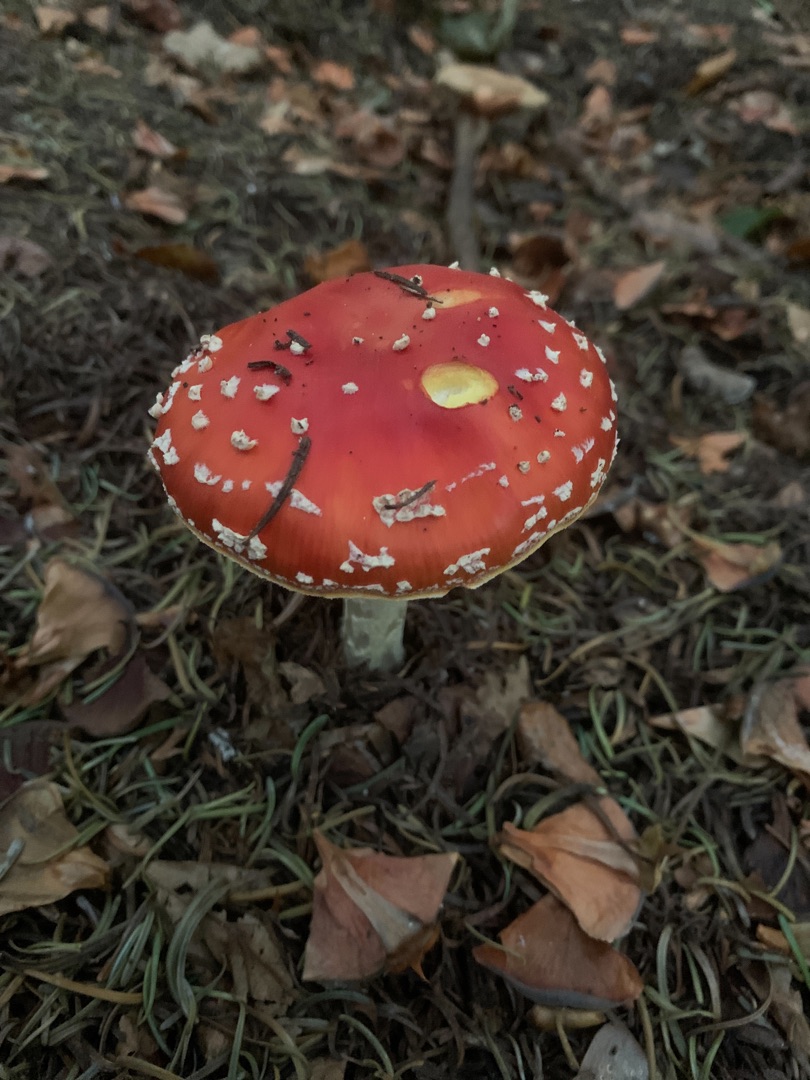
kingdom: Fungi
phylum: Basidiomycota
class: Agaricomycetes
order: Agaricales
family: Amanitaceae
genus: Amanita
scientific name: Amanita muscaria
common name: Rød fluesvamp
